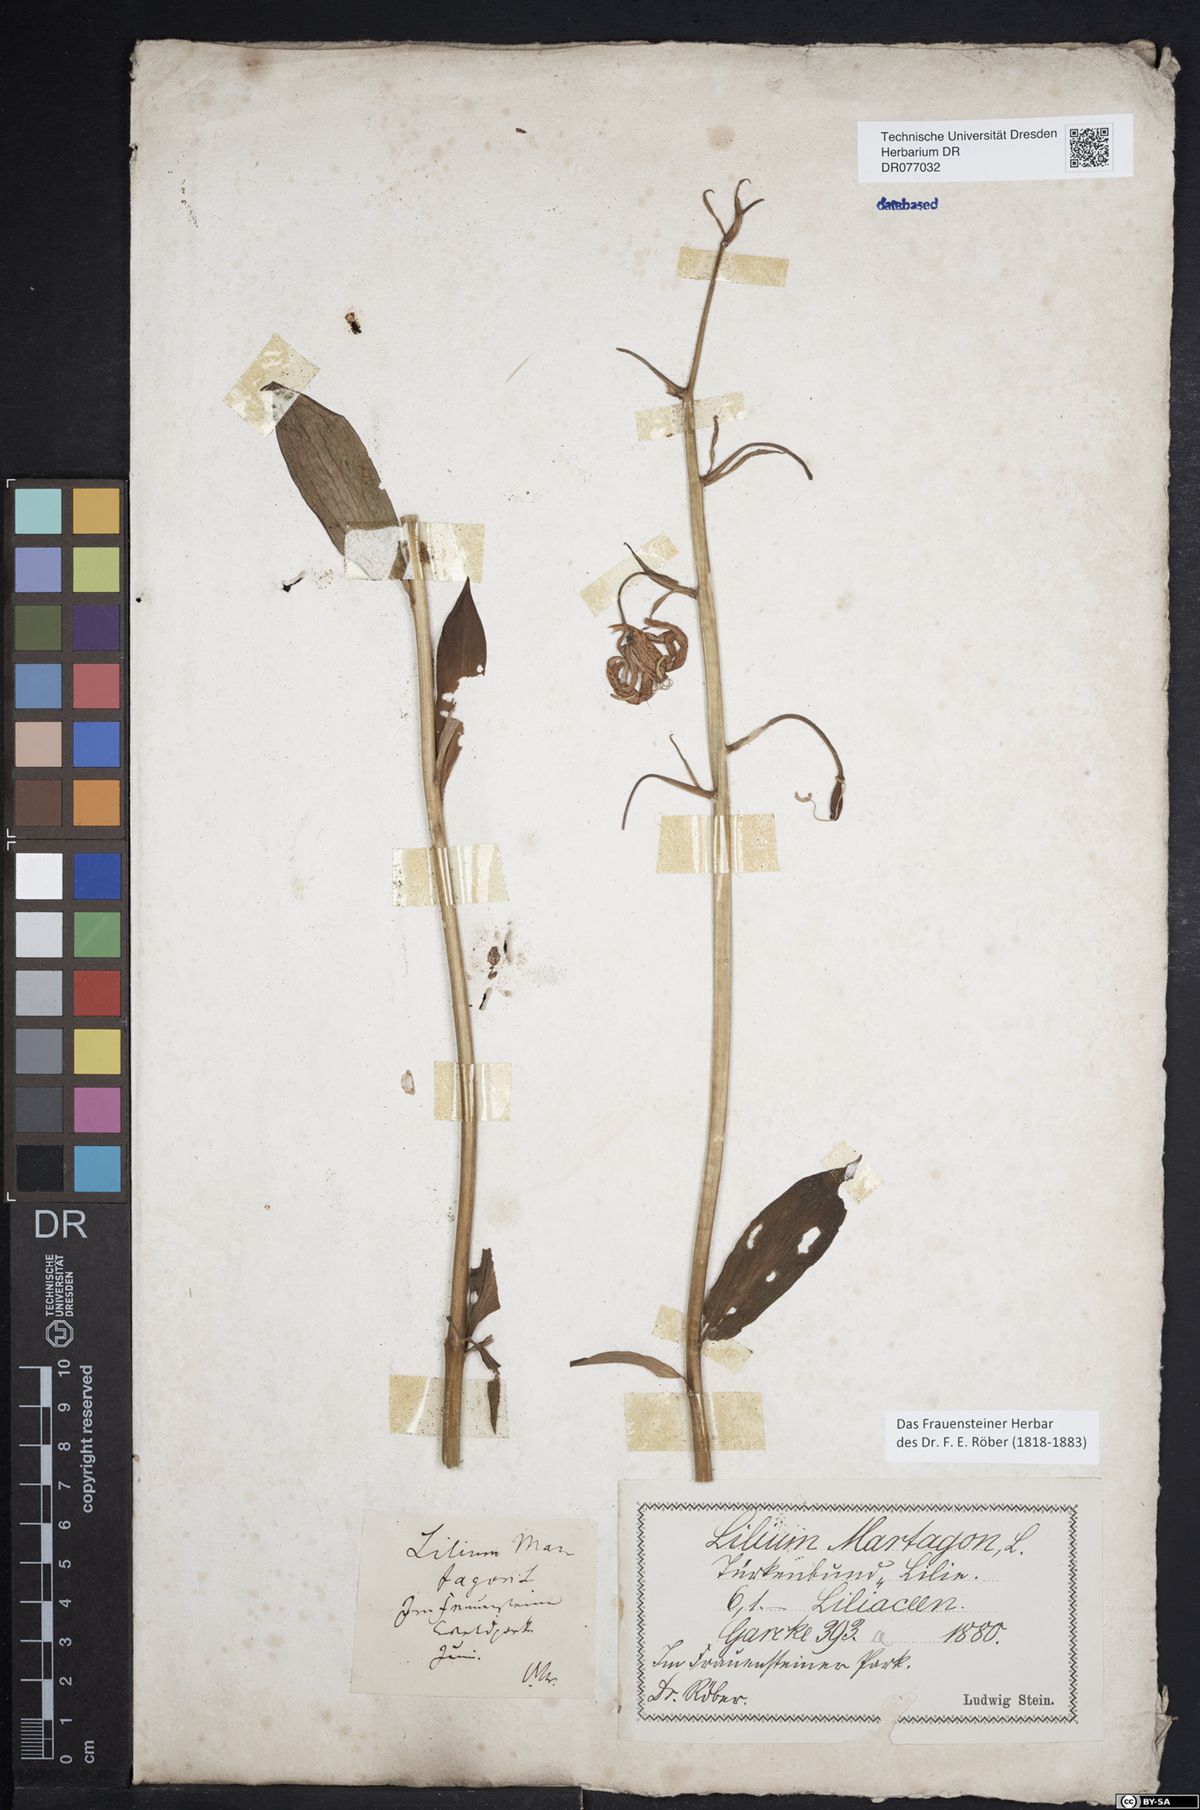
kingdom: Plantae
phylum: Tracheophyta
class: Liliopsida
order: Liliales
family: Liliaceae
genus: Lilium
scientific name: Lilium martagon
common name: Martagon lily
